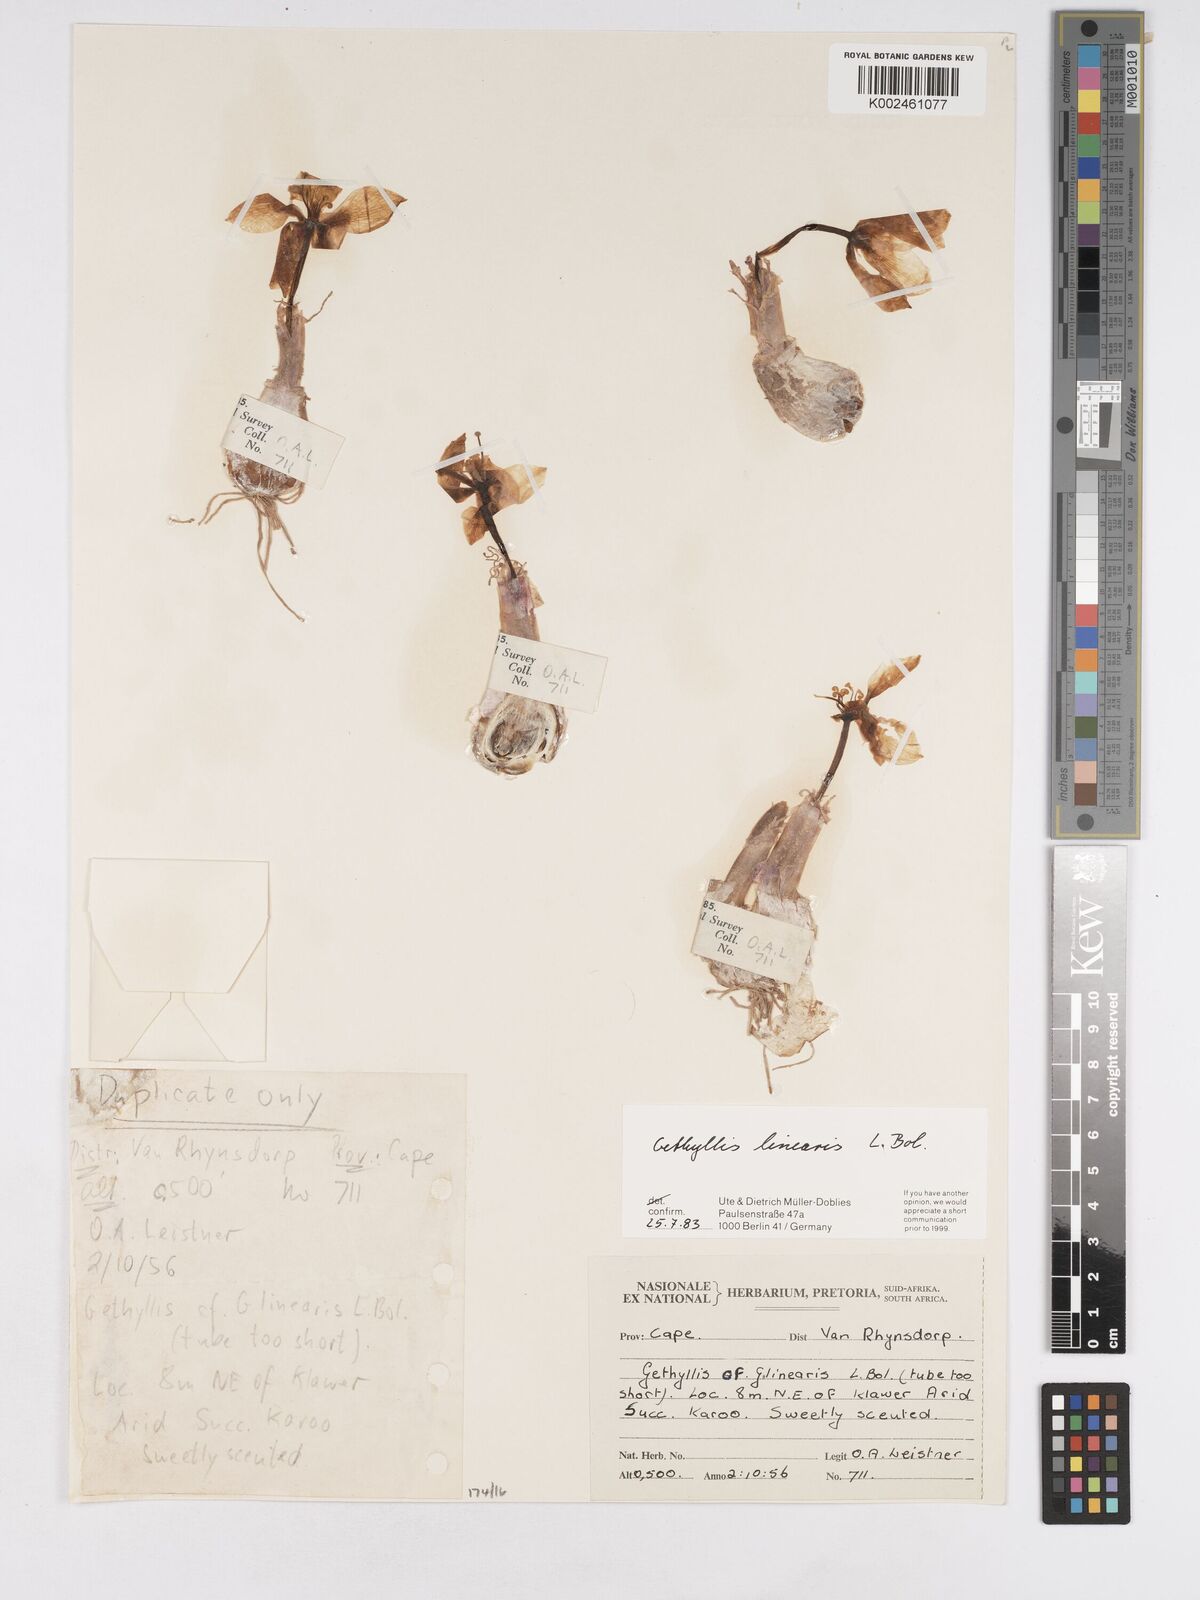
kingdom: Plantae
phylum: Tracheophyta
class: Liliopsida
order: Asparagales
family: Amaryllidaceae
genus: Gethyllis
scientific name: Gethyllis linearis
